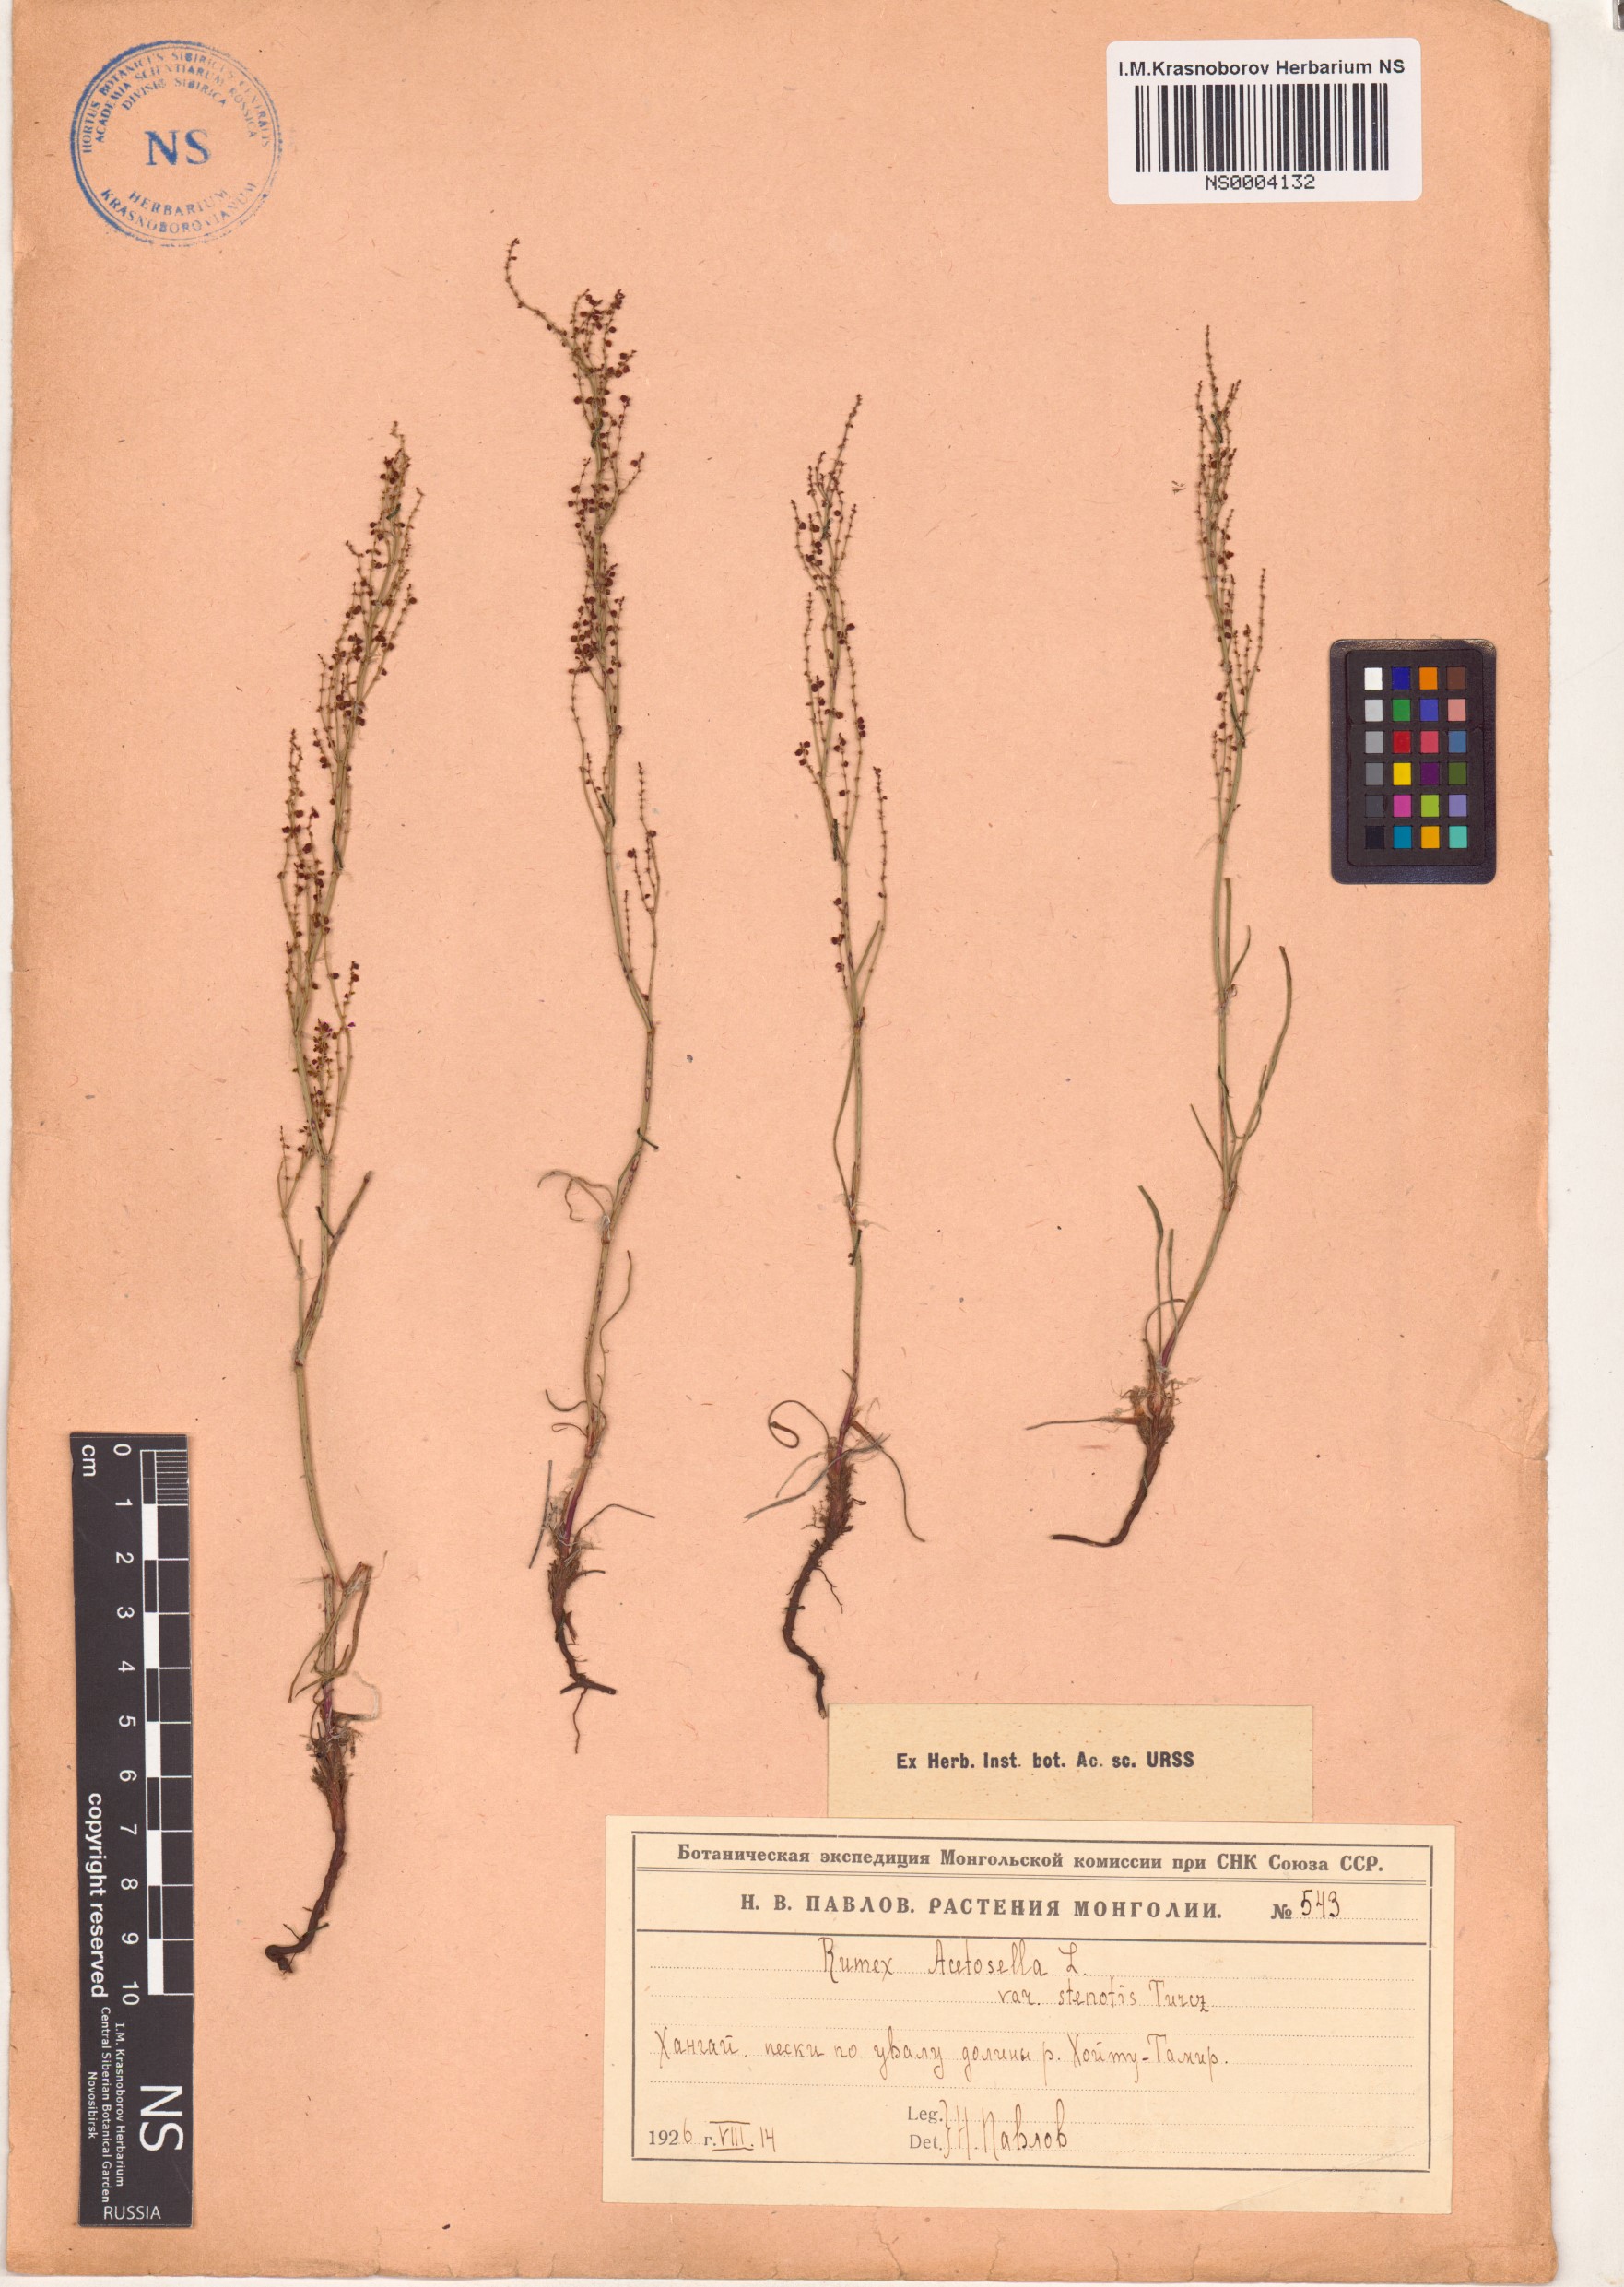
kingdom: Plantae
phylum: Tracheophyta
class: Magnoliopsida
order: Caryophyllales
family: Polygonaceae
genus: Rumex
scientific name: Rumex acetosella
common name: Common sheep sorrel
